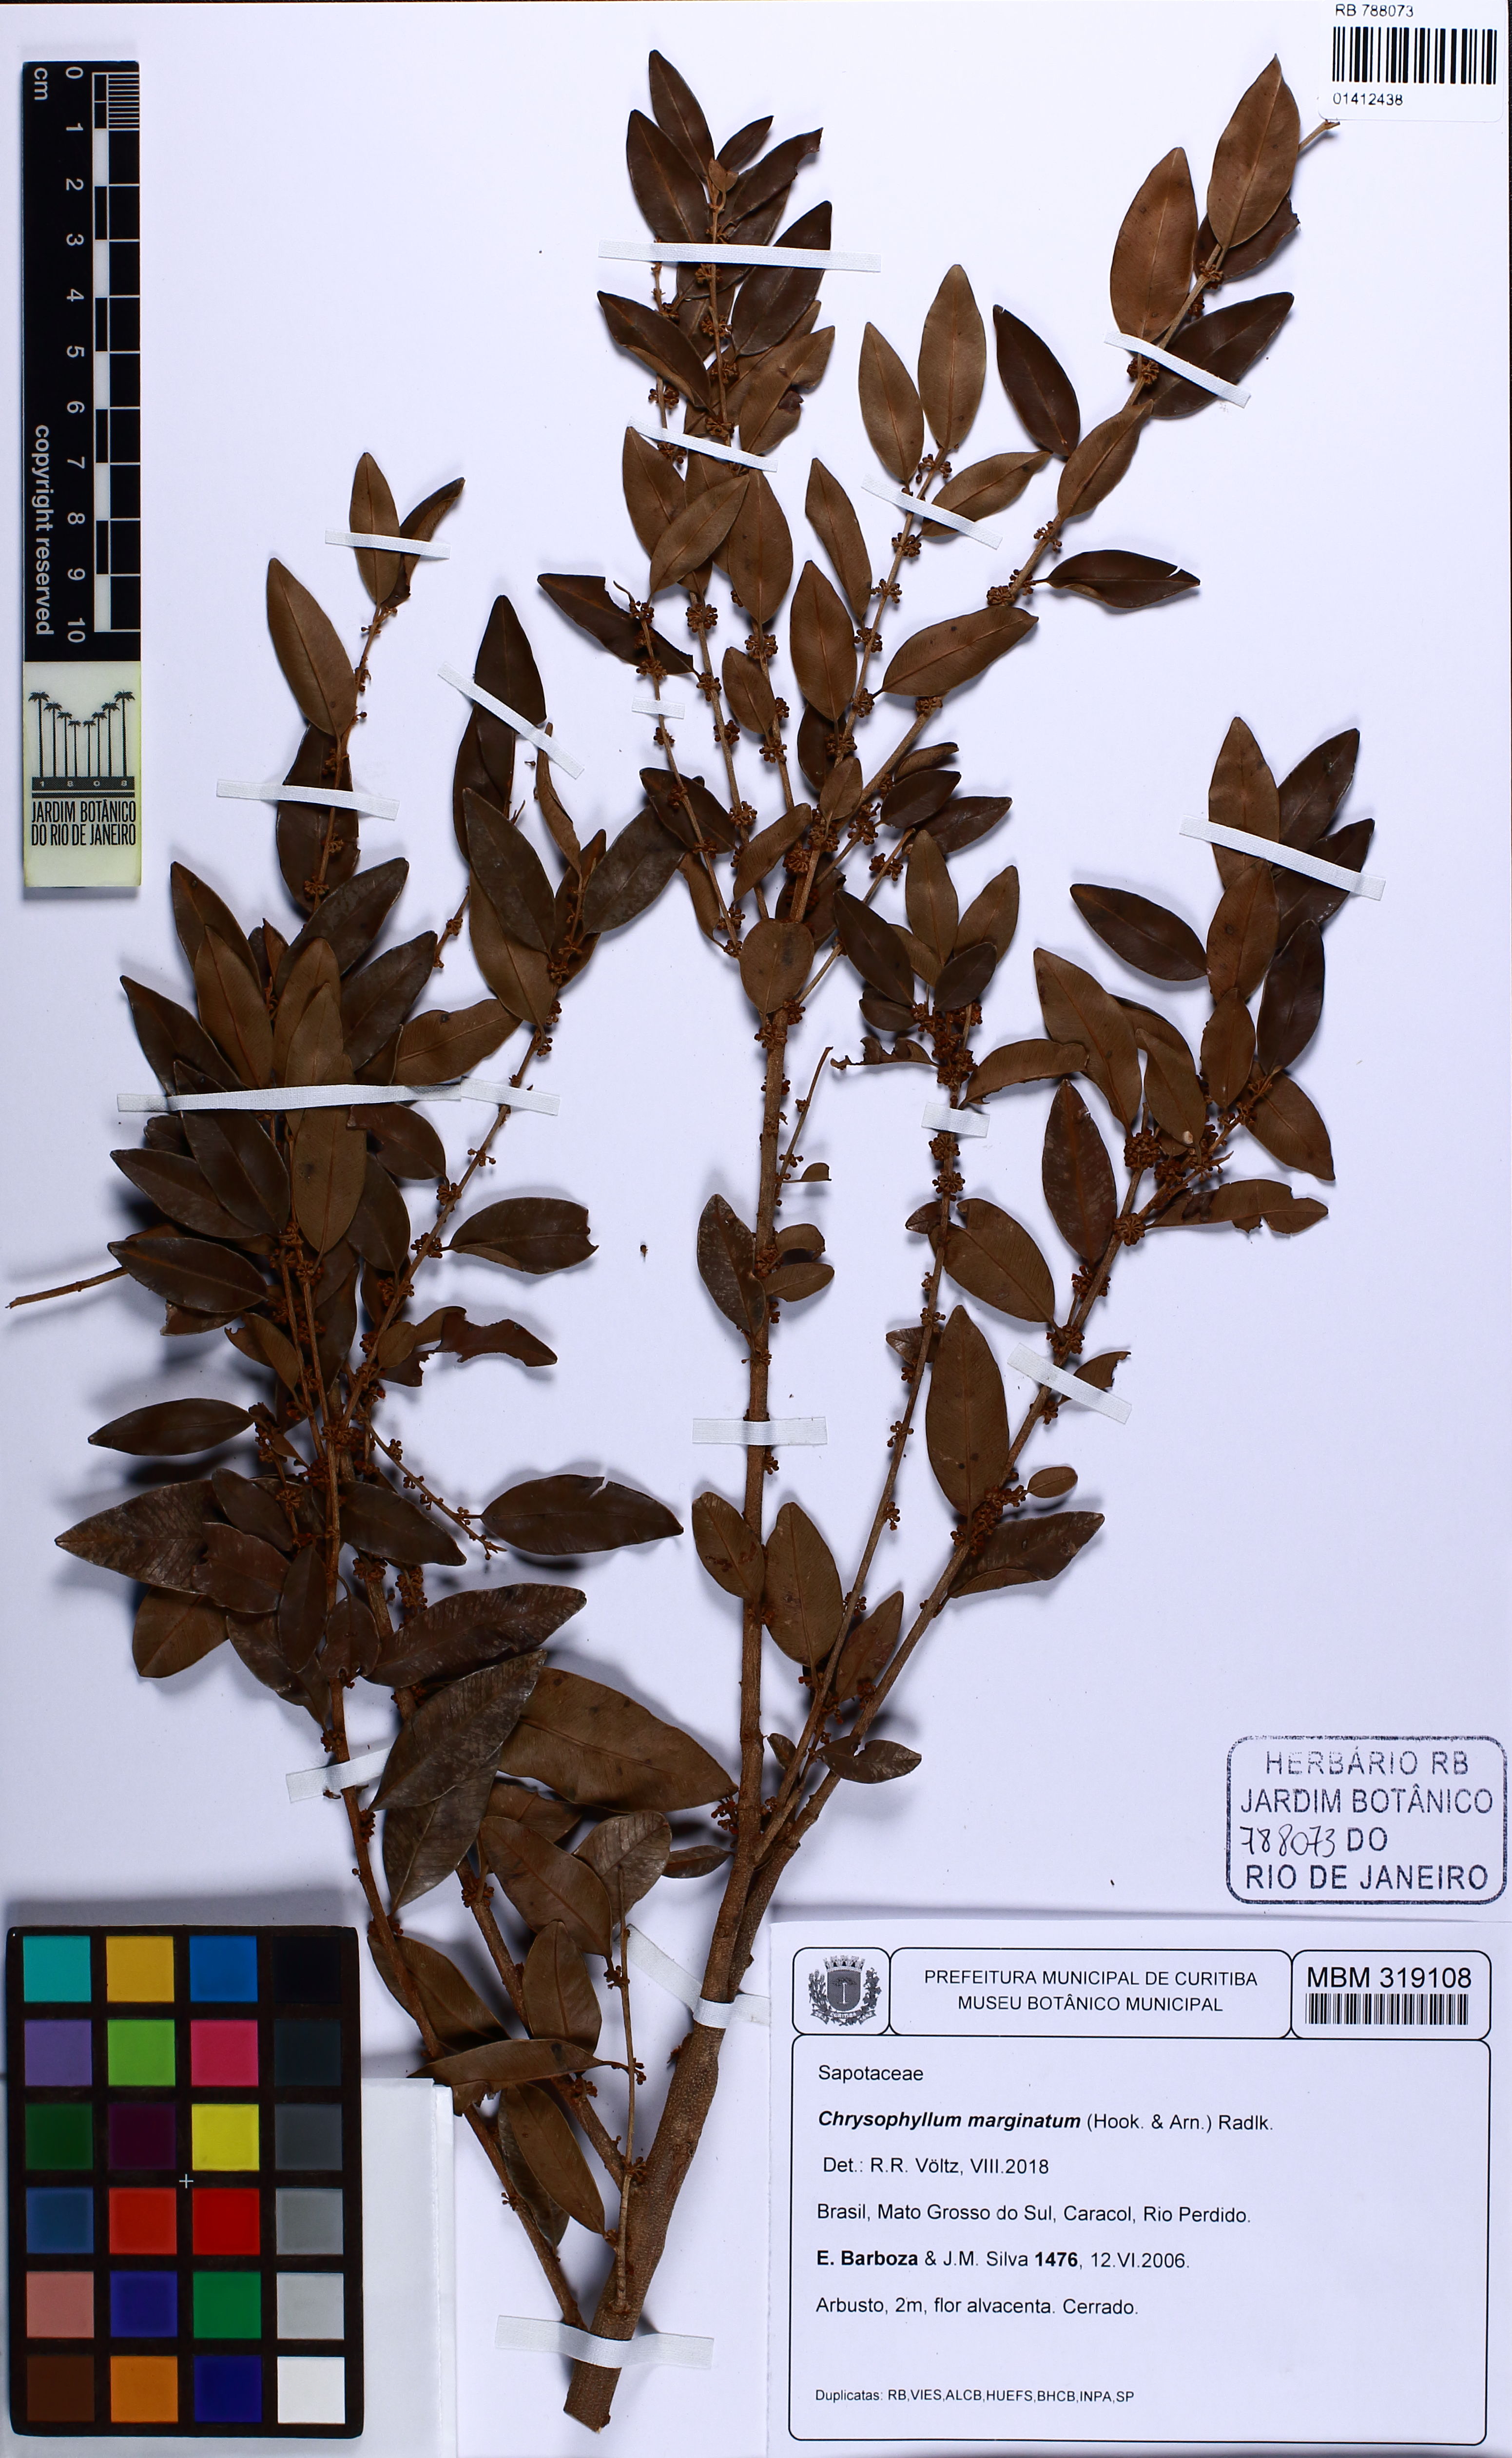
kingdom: Plantae
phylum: Tracheophyta
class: Magnoliopsida
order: Ericales
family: Sapotaceae
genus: Chrysophyllum
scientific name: Chrysophyllum marginatum
